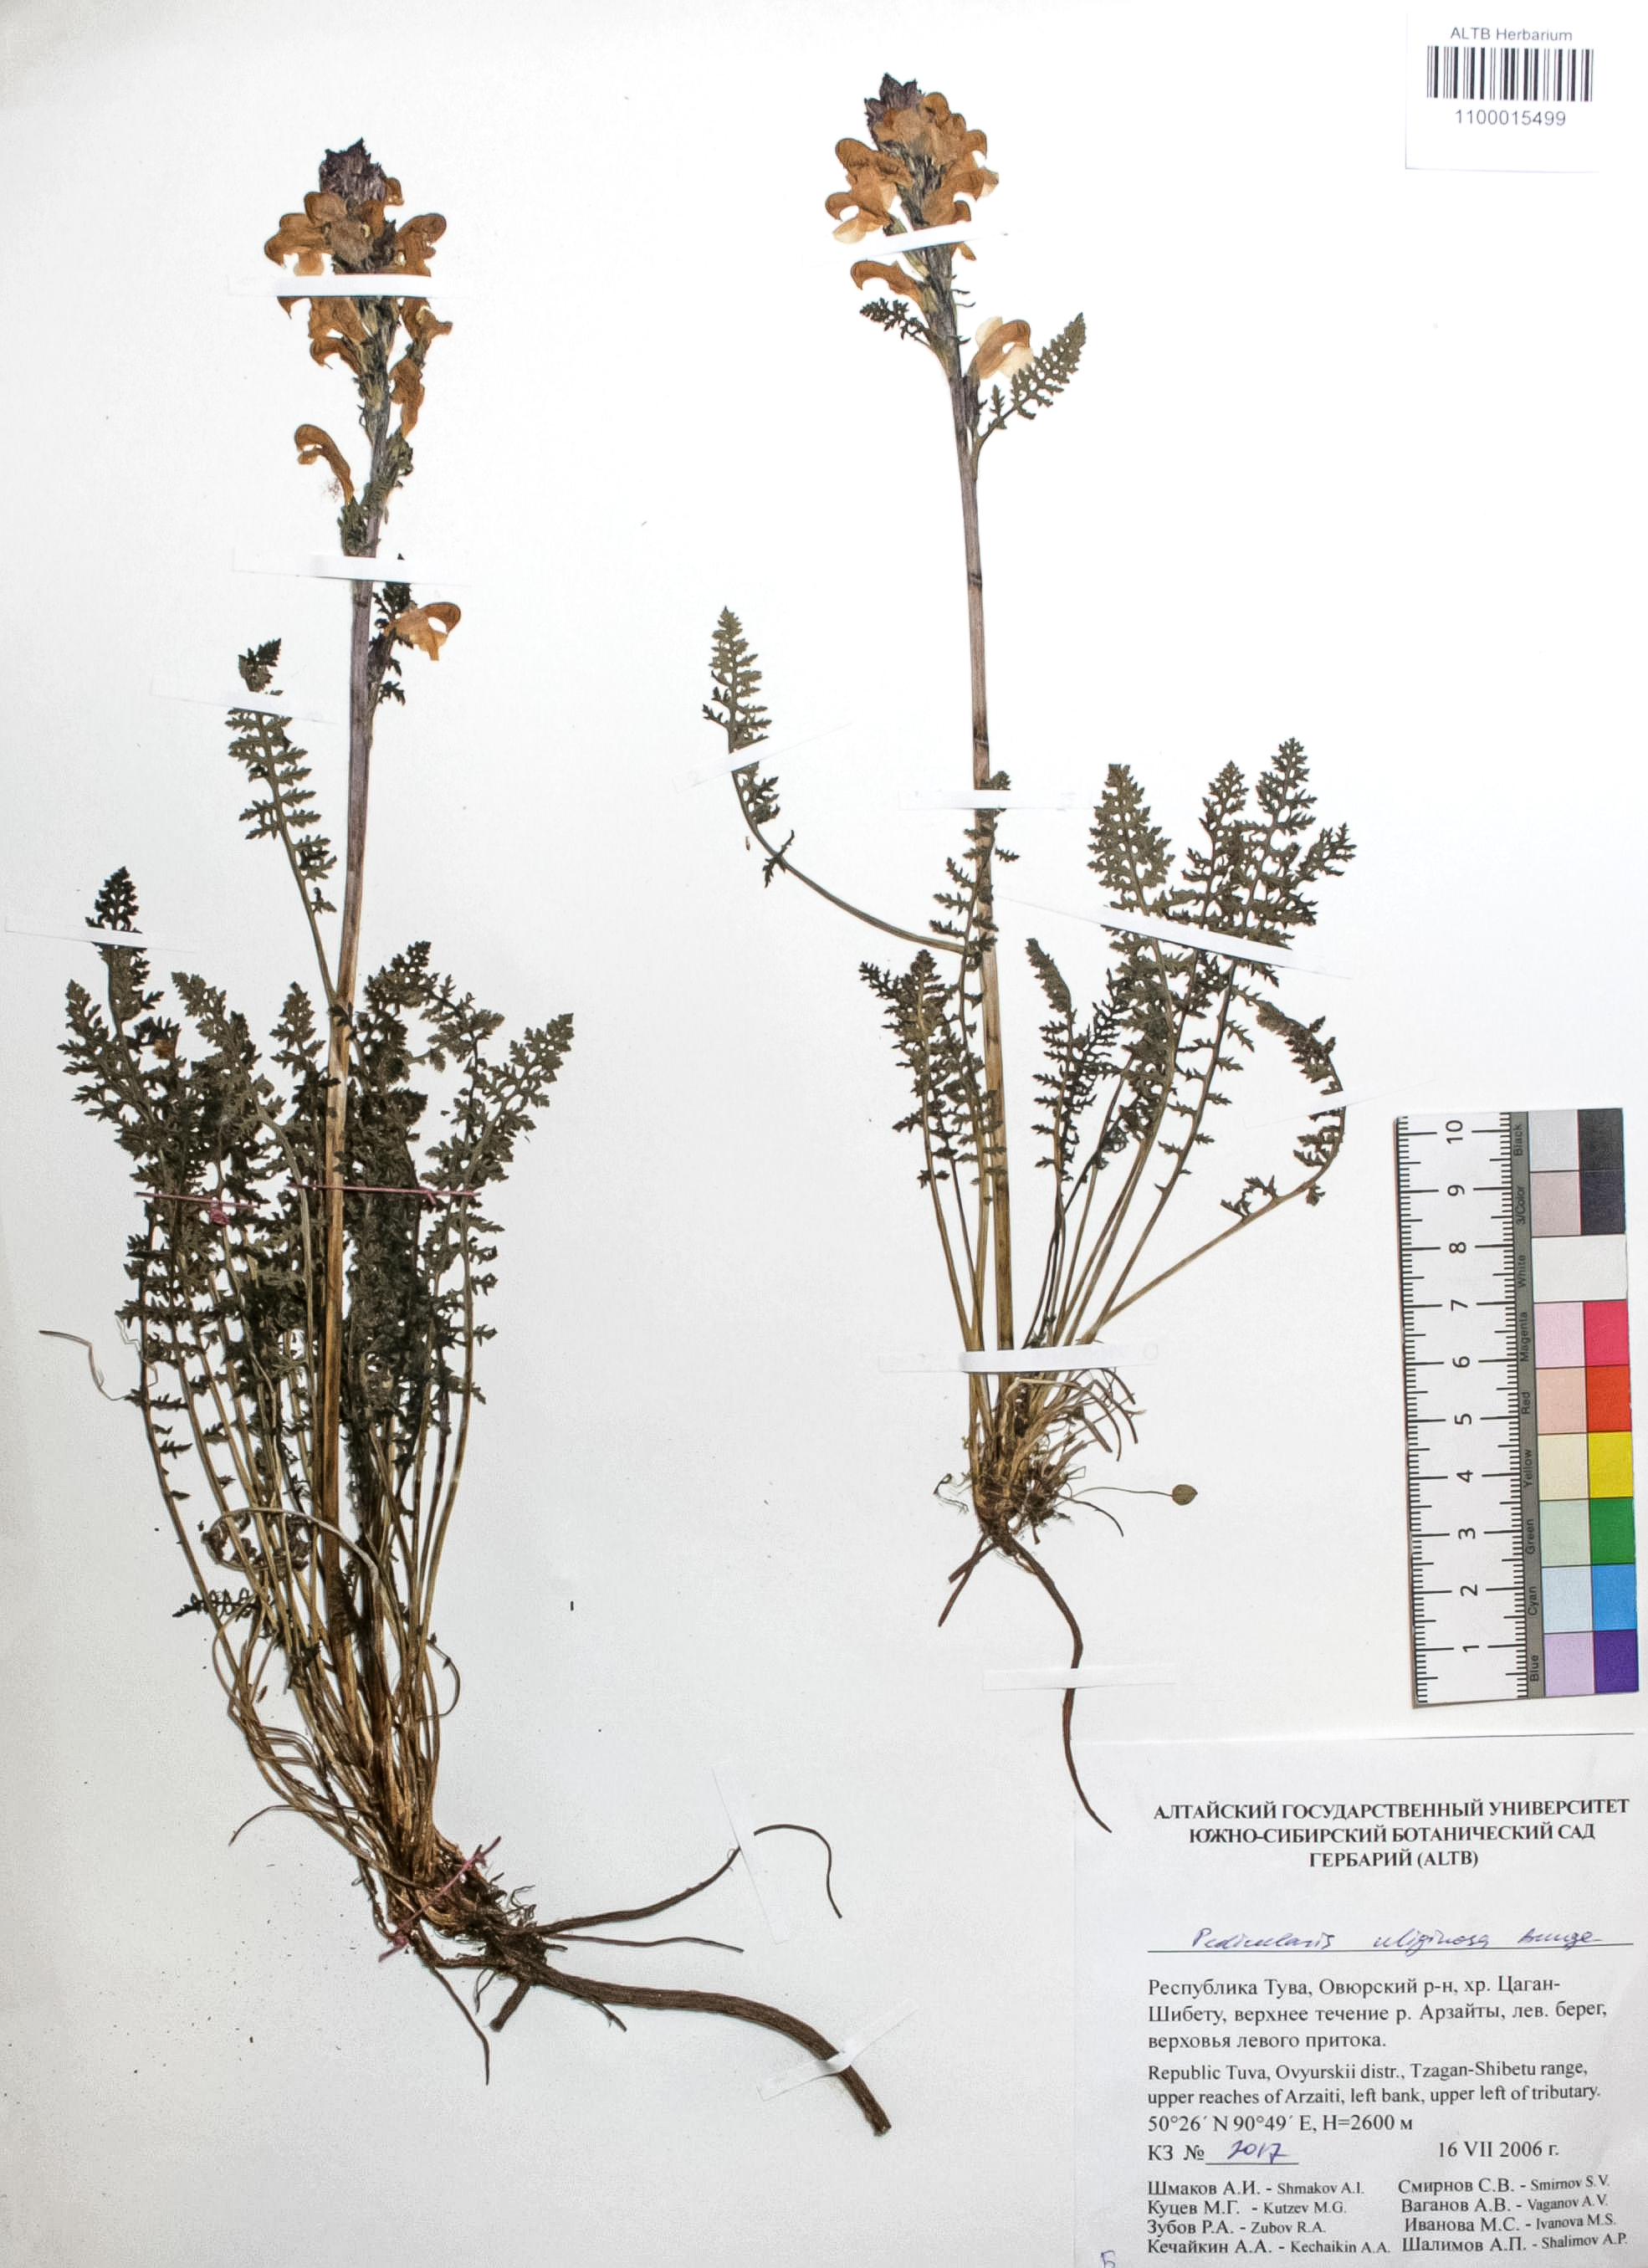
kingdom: Plantae
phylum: Tracheophyta
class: Magnoliopsida
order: Lamiales
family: Orobanchaceae
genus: Pedicularis
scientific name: Pedicularis uliginosa
